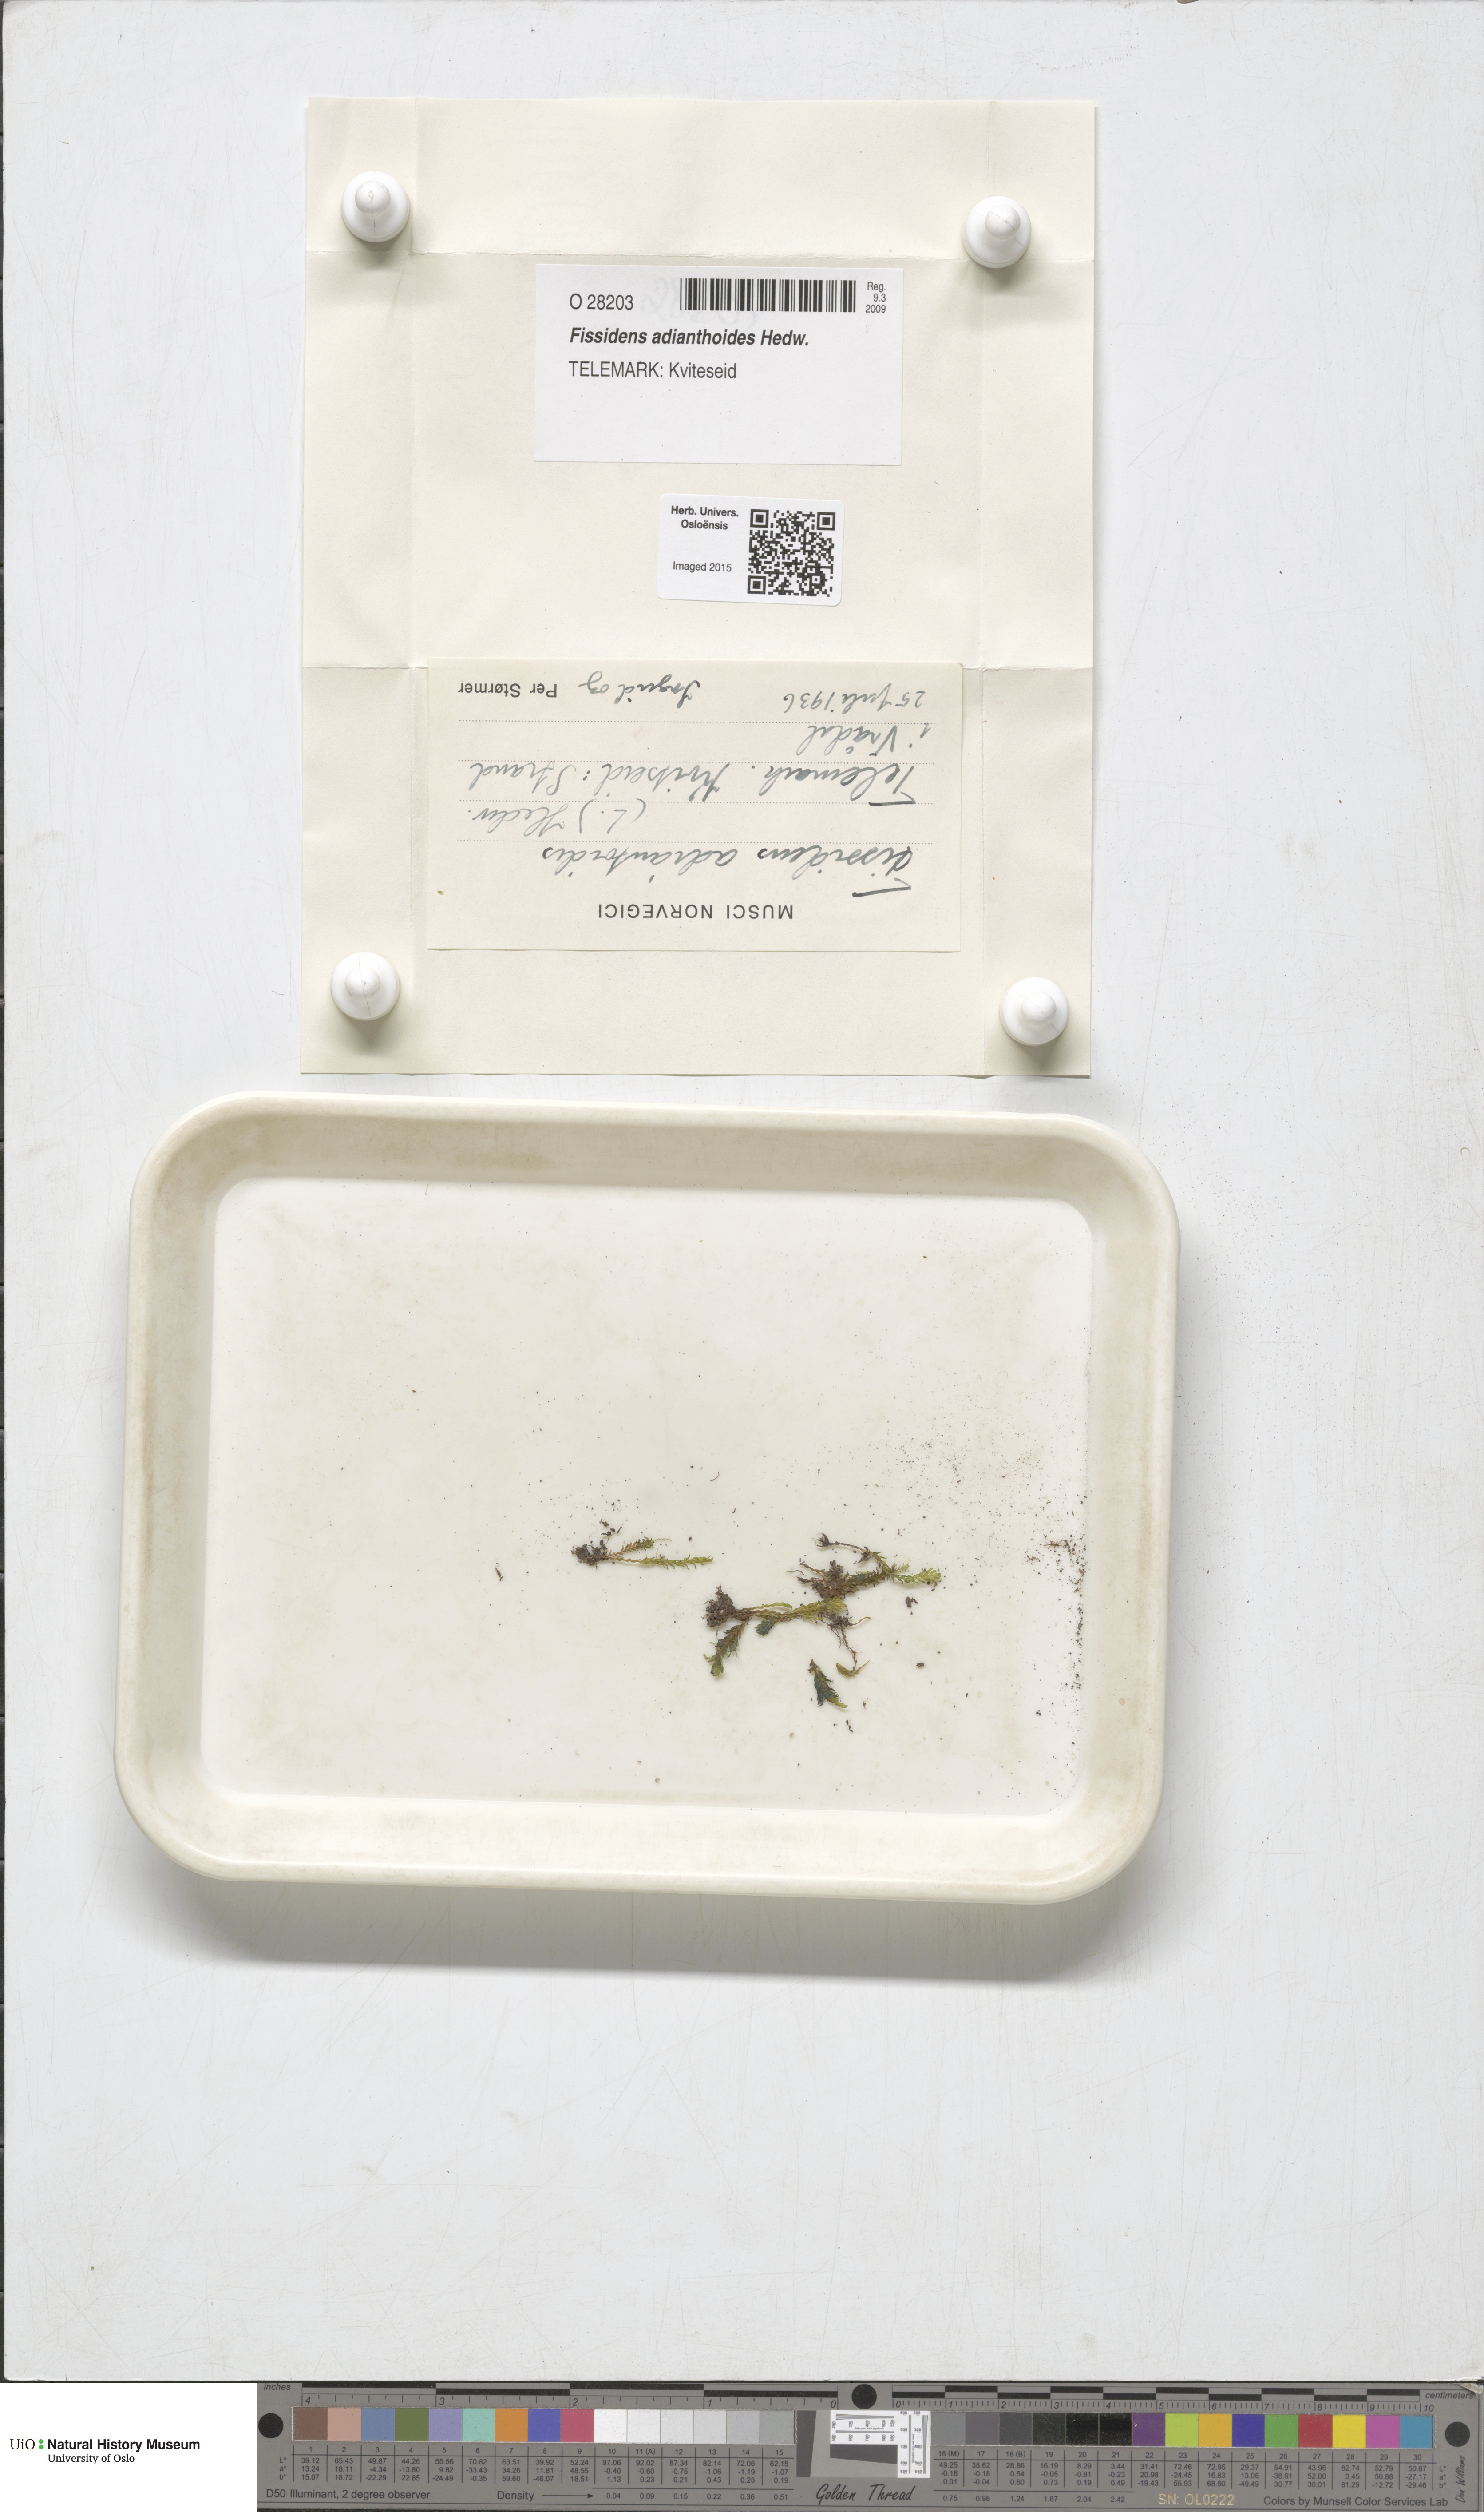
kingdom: Plantae
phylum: Bryophyta
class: Bryopsida
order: Dicranales
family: Fissidentaceae
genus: Fissidens
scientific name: Fissidens adianthoides
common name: Maidenhair pocket moss
